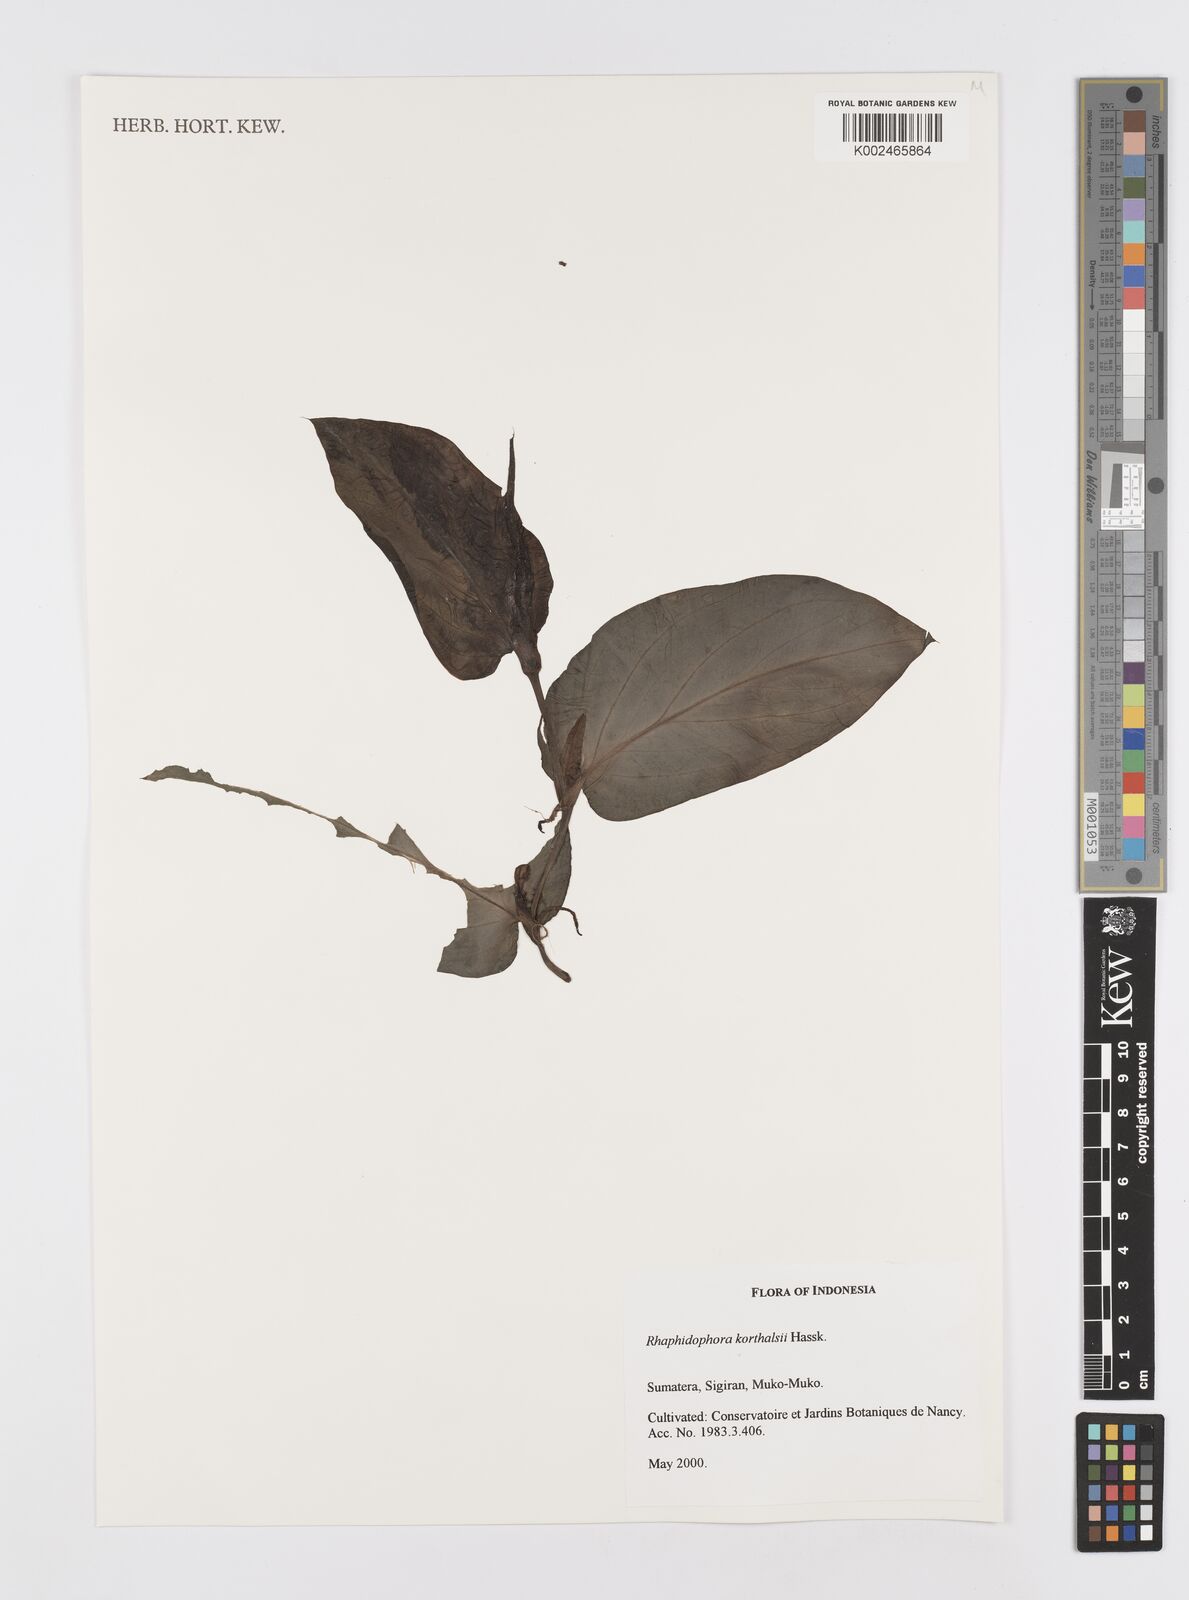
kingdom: Plantae
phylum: Tracheophyta
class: Liliopsida
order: Alismatales
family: Araceae
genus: Rhaphidophora
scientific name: Rhaphidophora korthalsii
